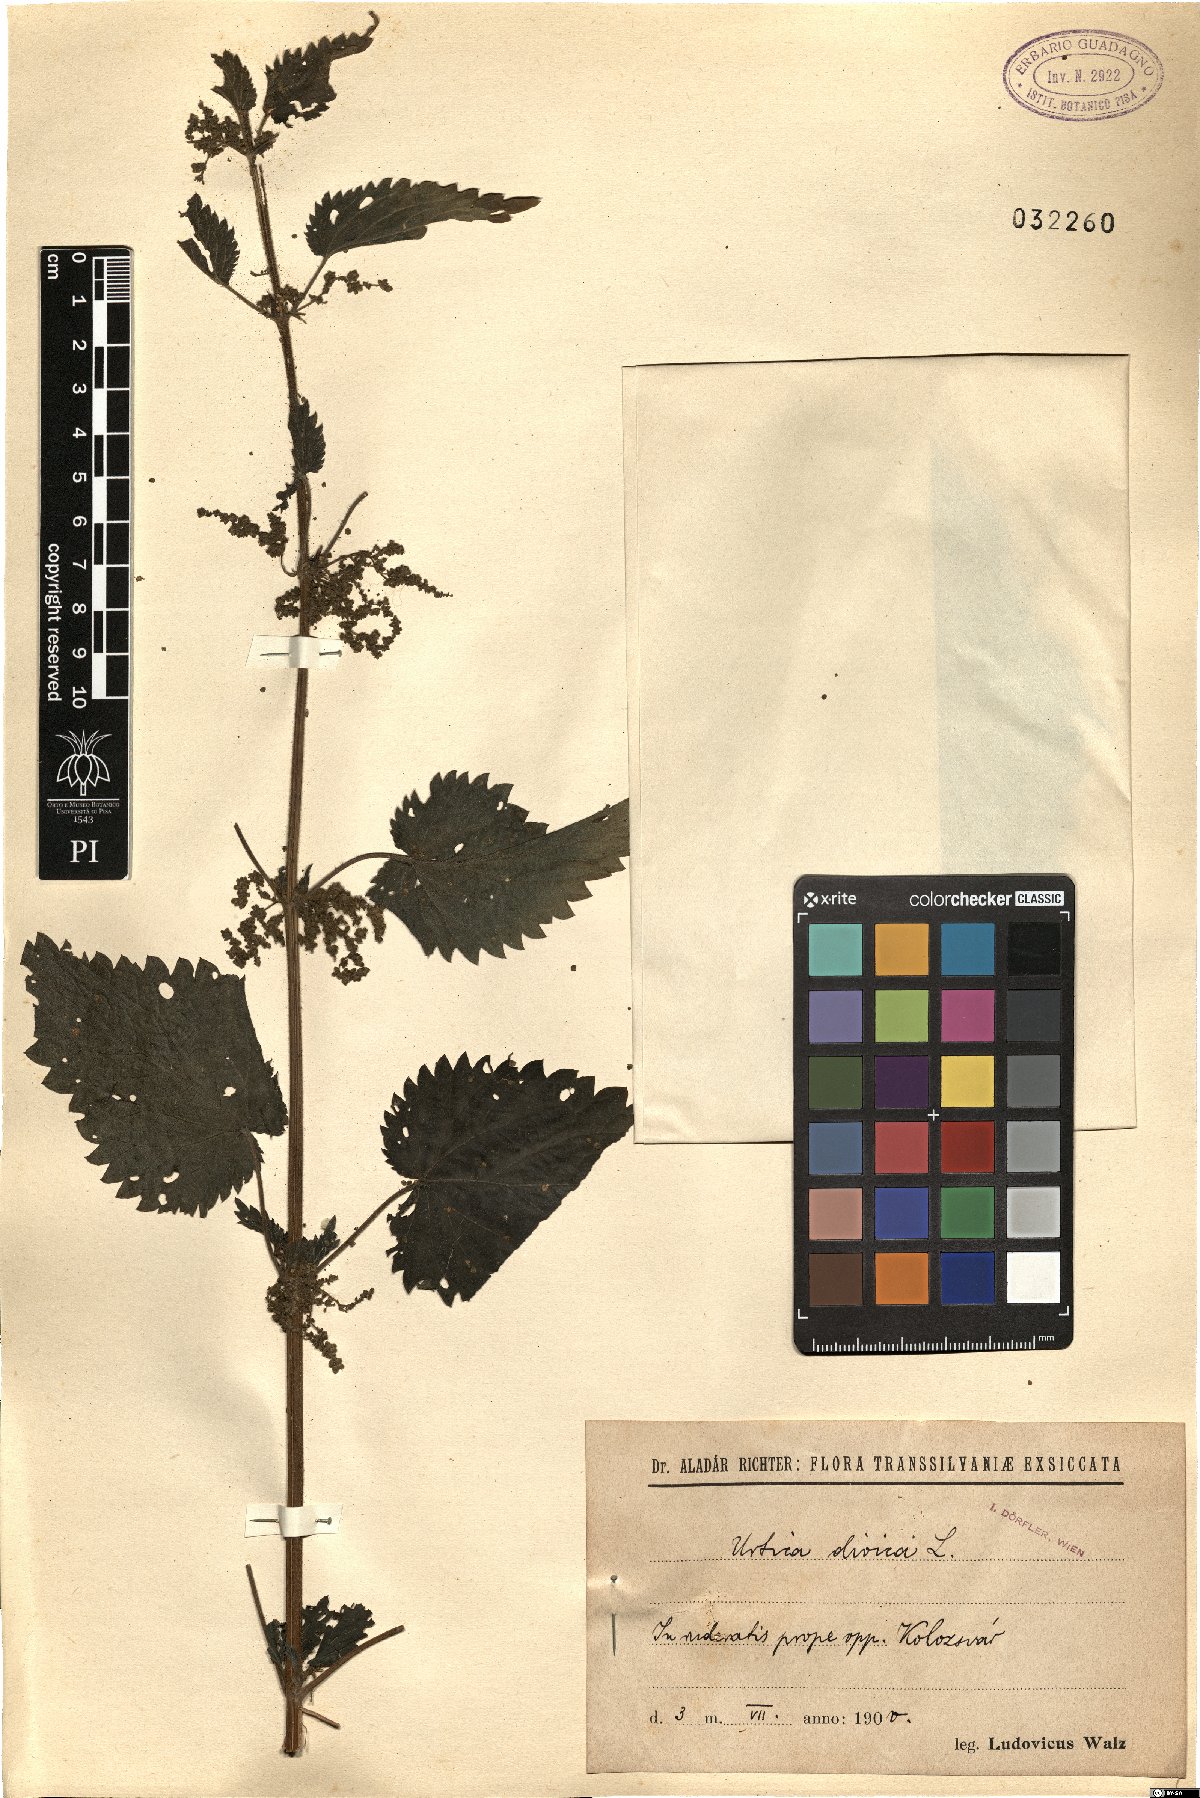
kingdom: Plantae
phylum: Tracheophyta
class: Magnoliopsida
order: Rosales
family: Urticaceae
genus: Urtica
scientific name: Urtica dioica
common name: Common nettle
